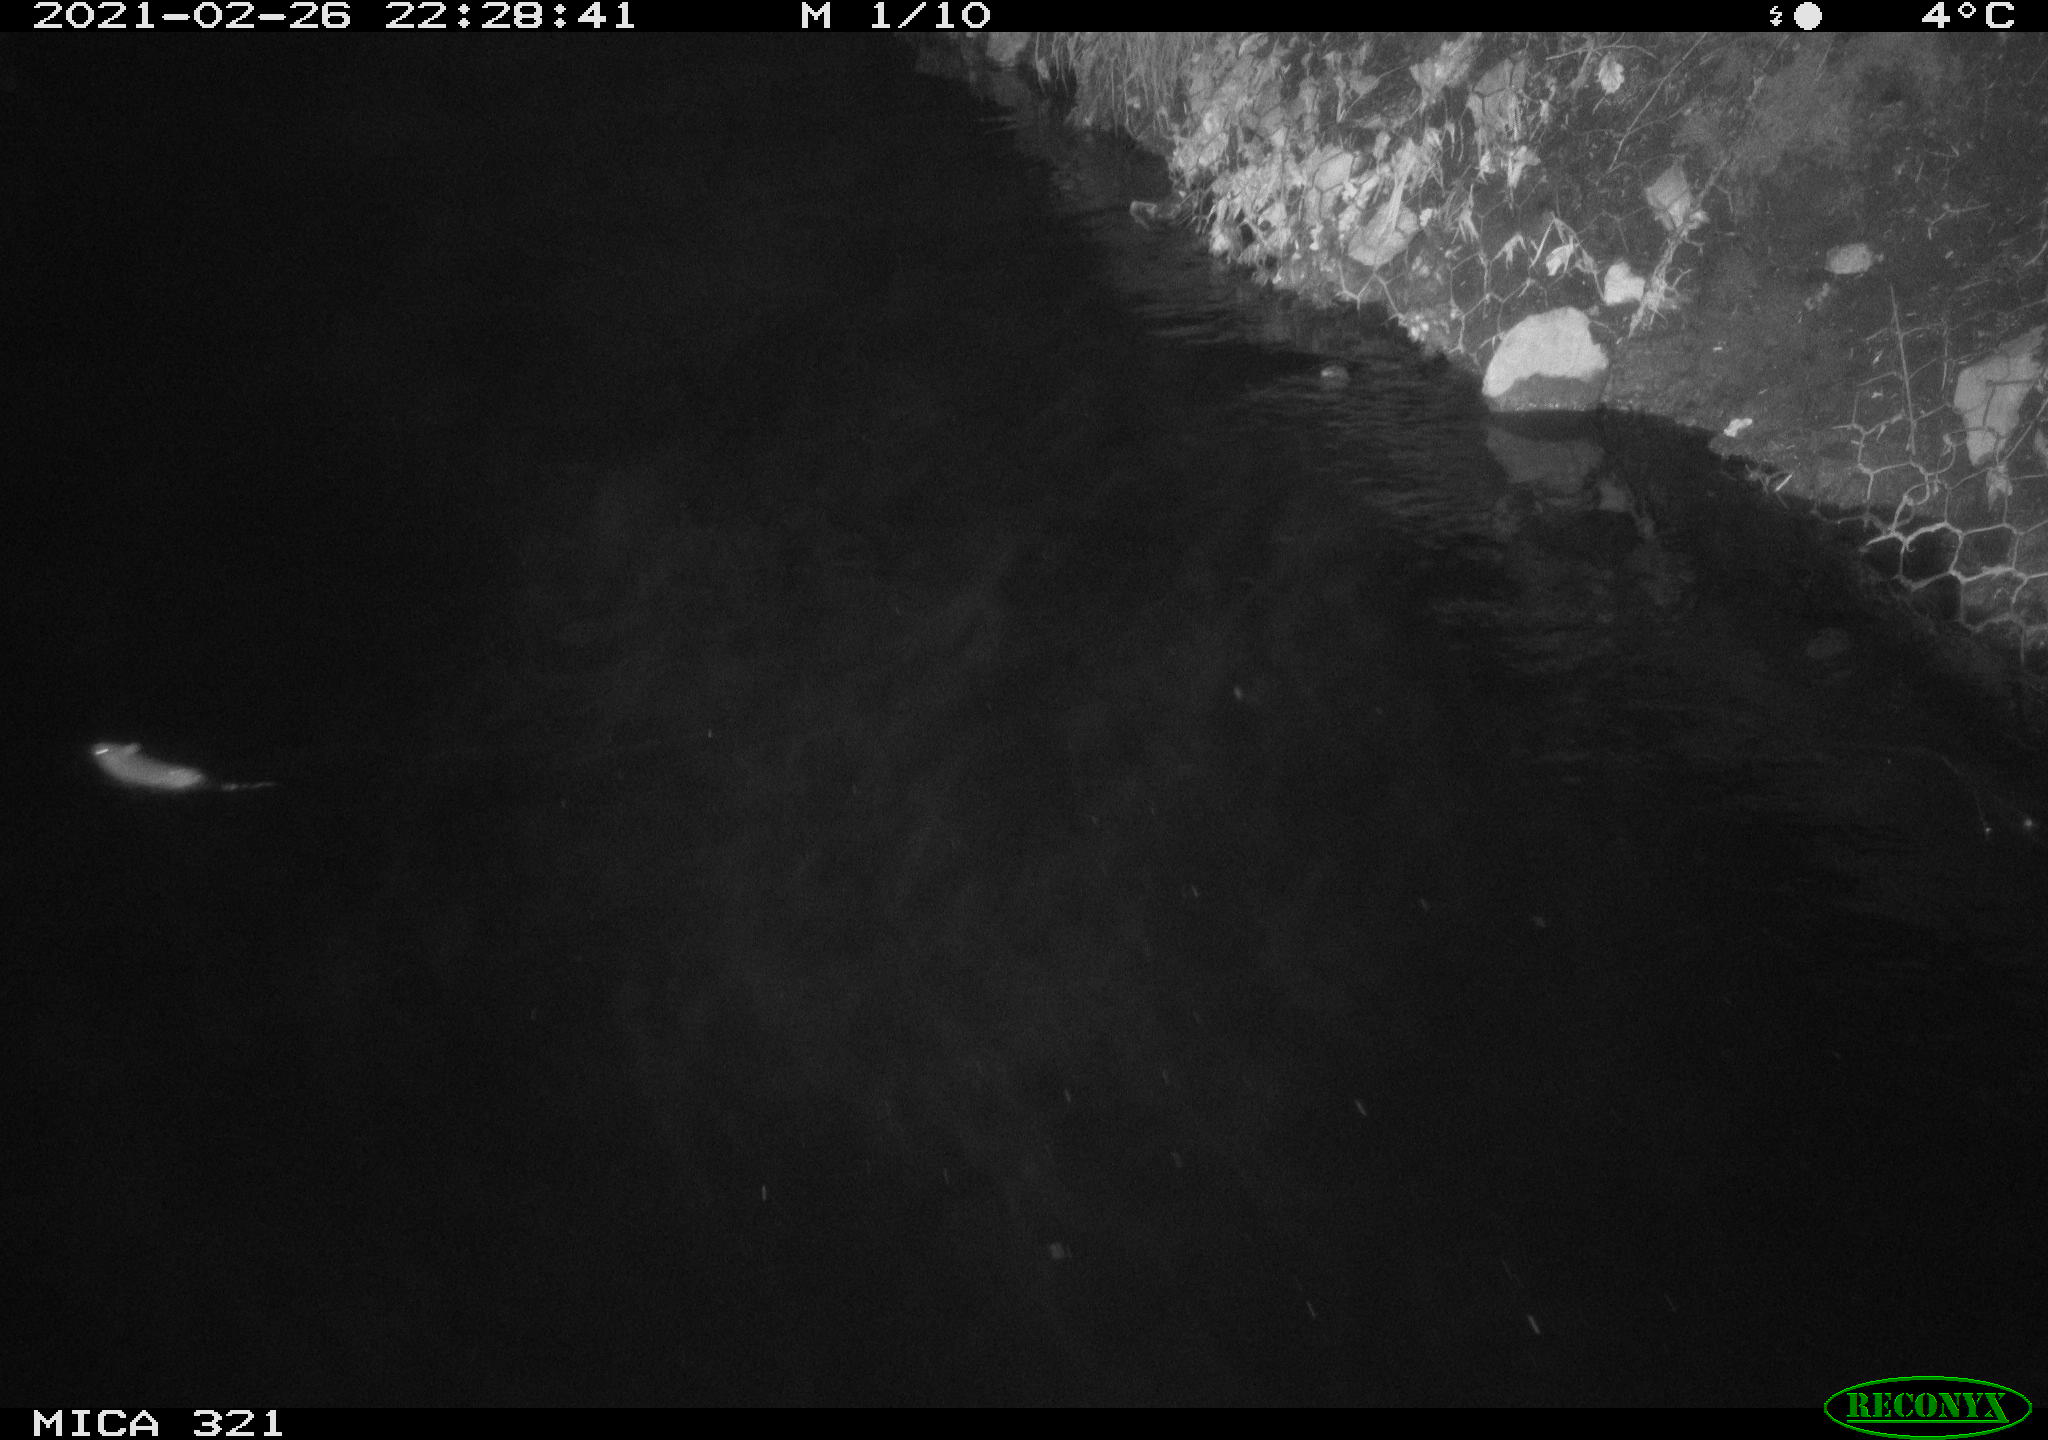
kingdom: Animalia
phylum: Chordata
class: Mammalia
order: Rodentia
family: Muridae
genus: Rattus
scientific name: Rattus norvegicus
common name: Brown rat
